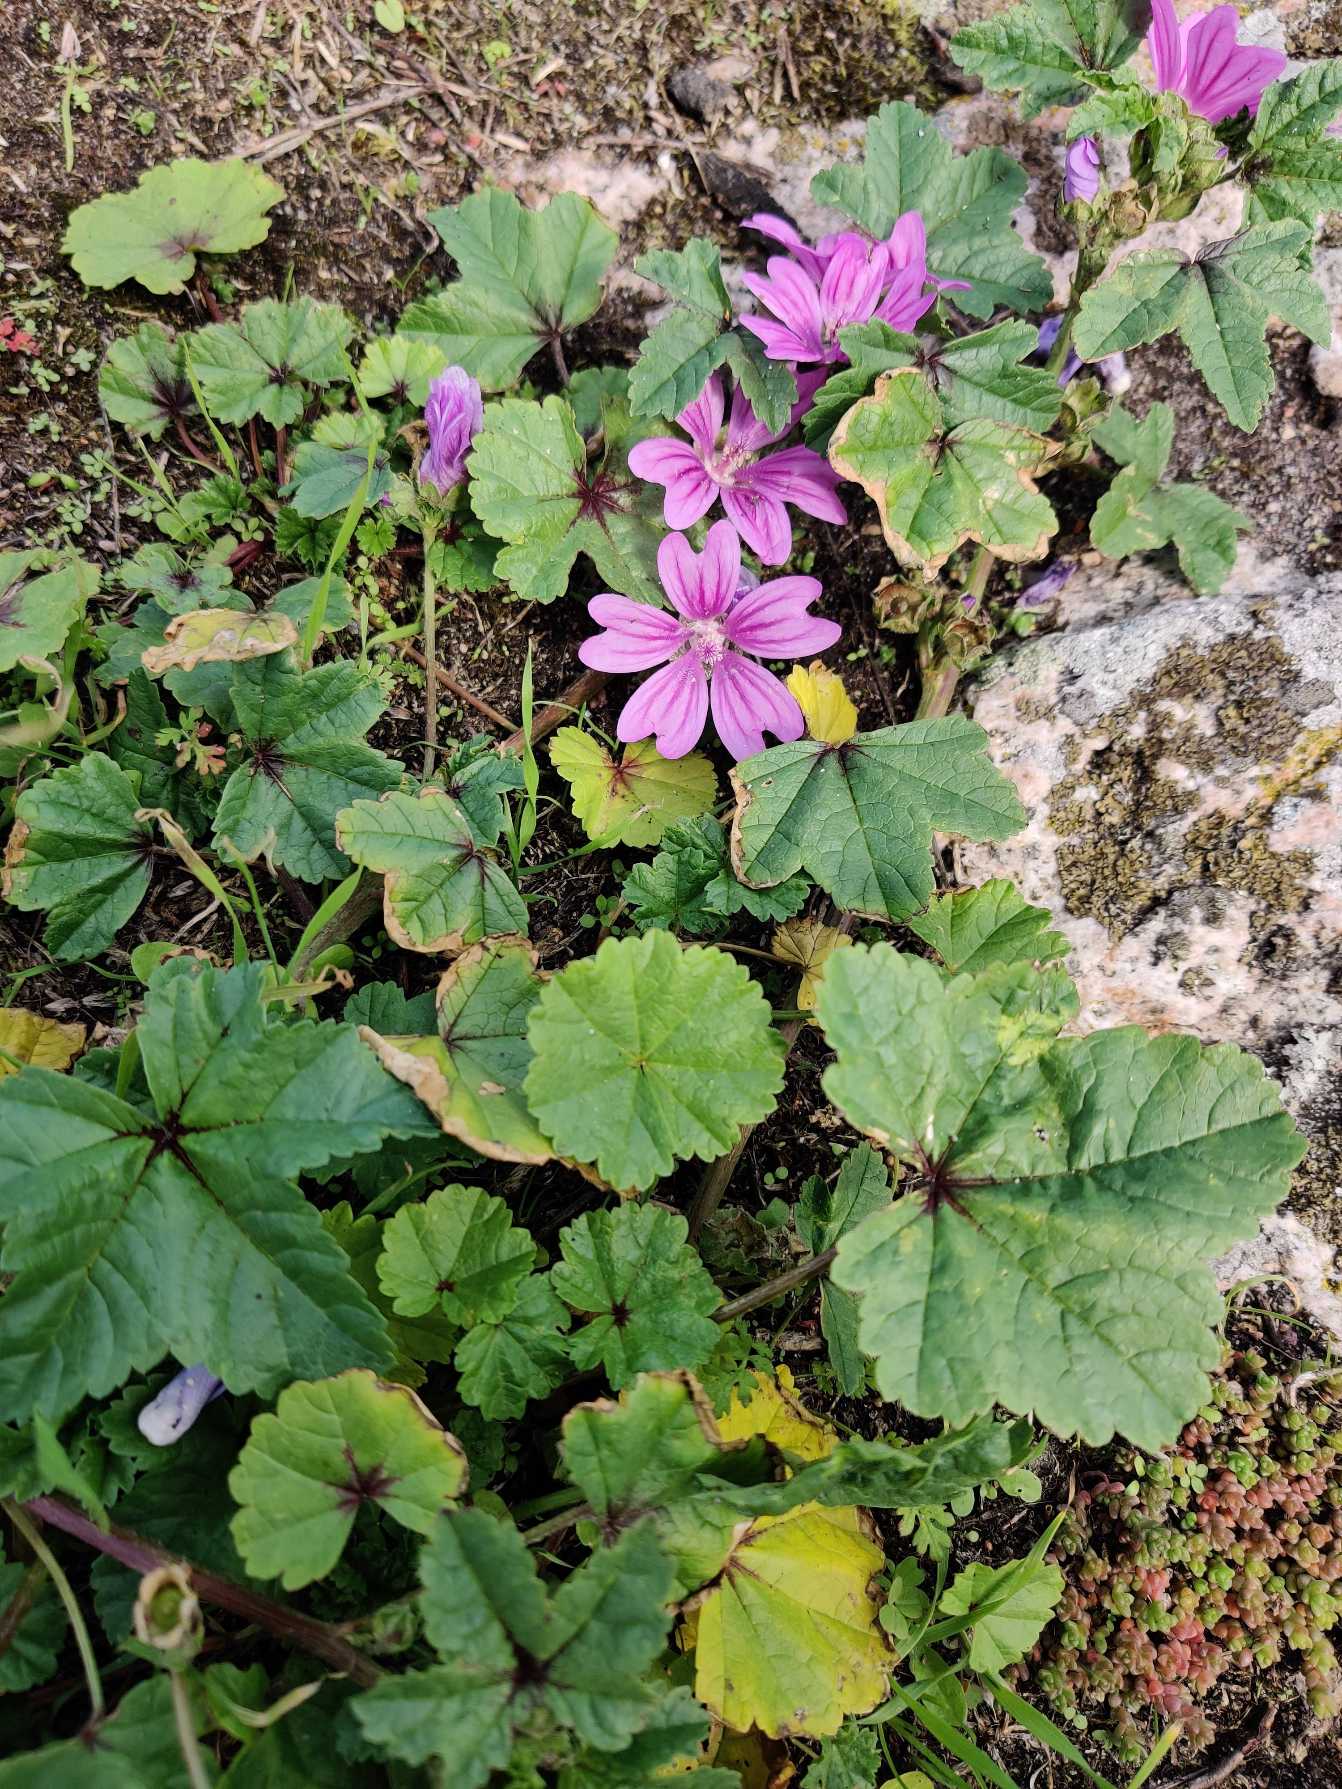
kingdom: Plantae
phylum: Tracheophyta
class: Magnoliopsida
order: Malvales
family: Malvaceae
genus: Malva
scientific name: Malva sylvestris
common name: Almindelig katost
